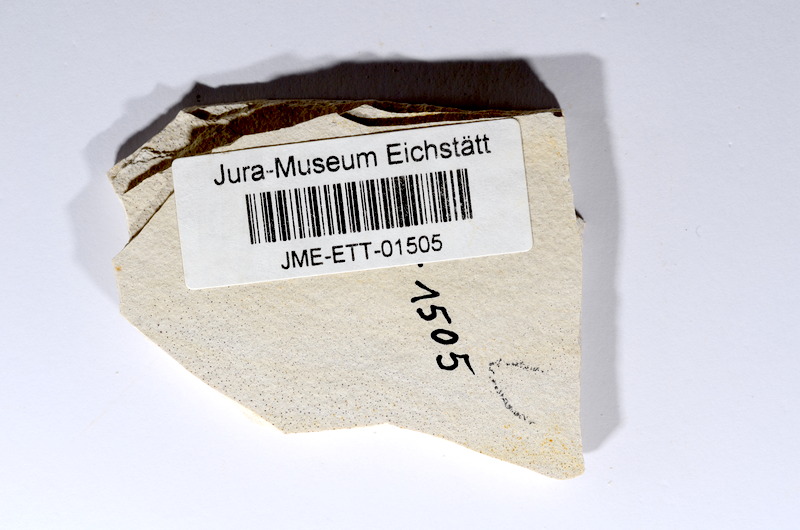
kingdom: Animalia
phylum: Chordata
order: Salmoniformes
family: Orthogonikleithridae
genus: Orthogonikleithrus
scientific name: Orthogonikleithrus hoelli
